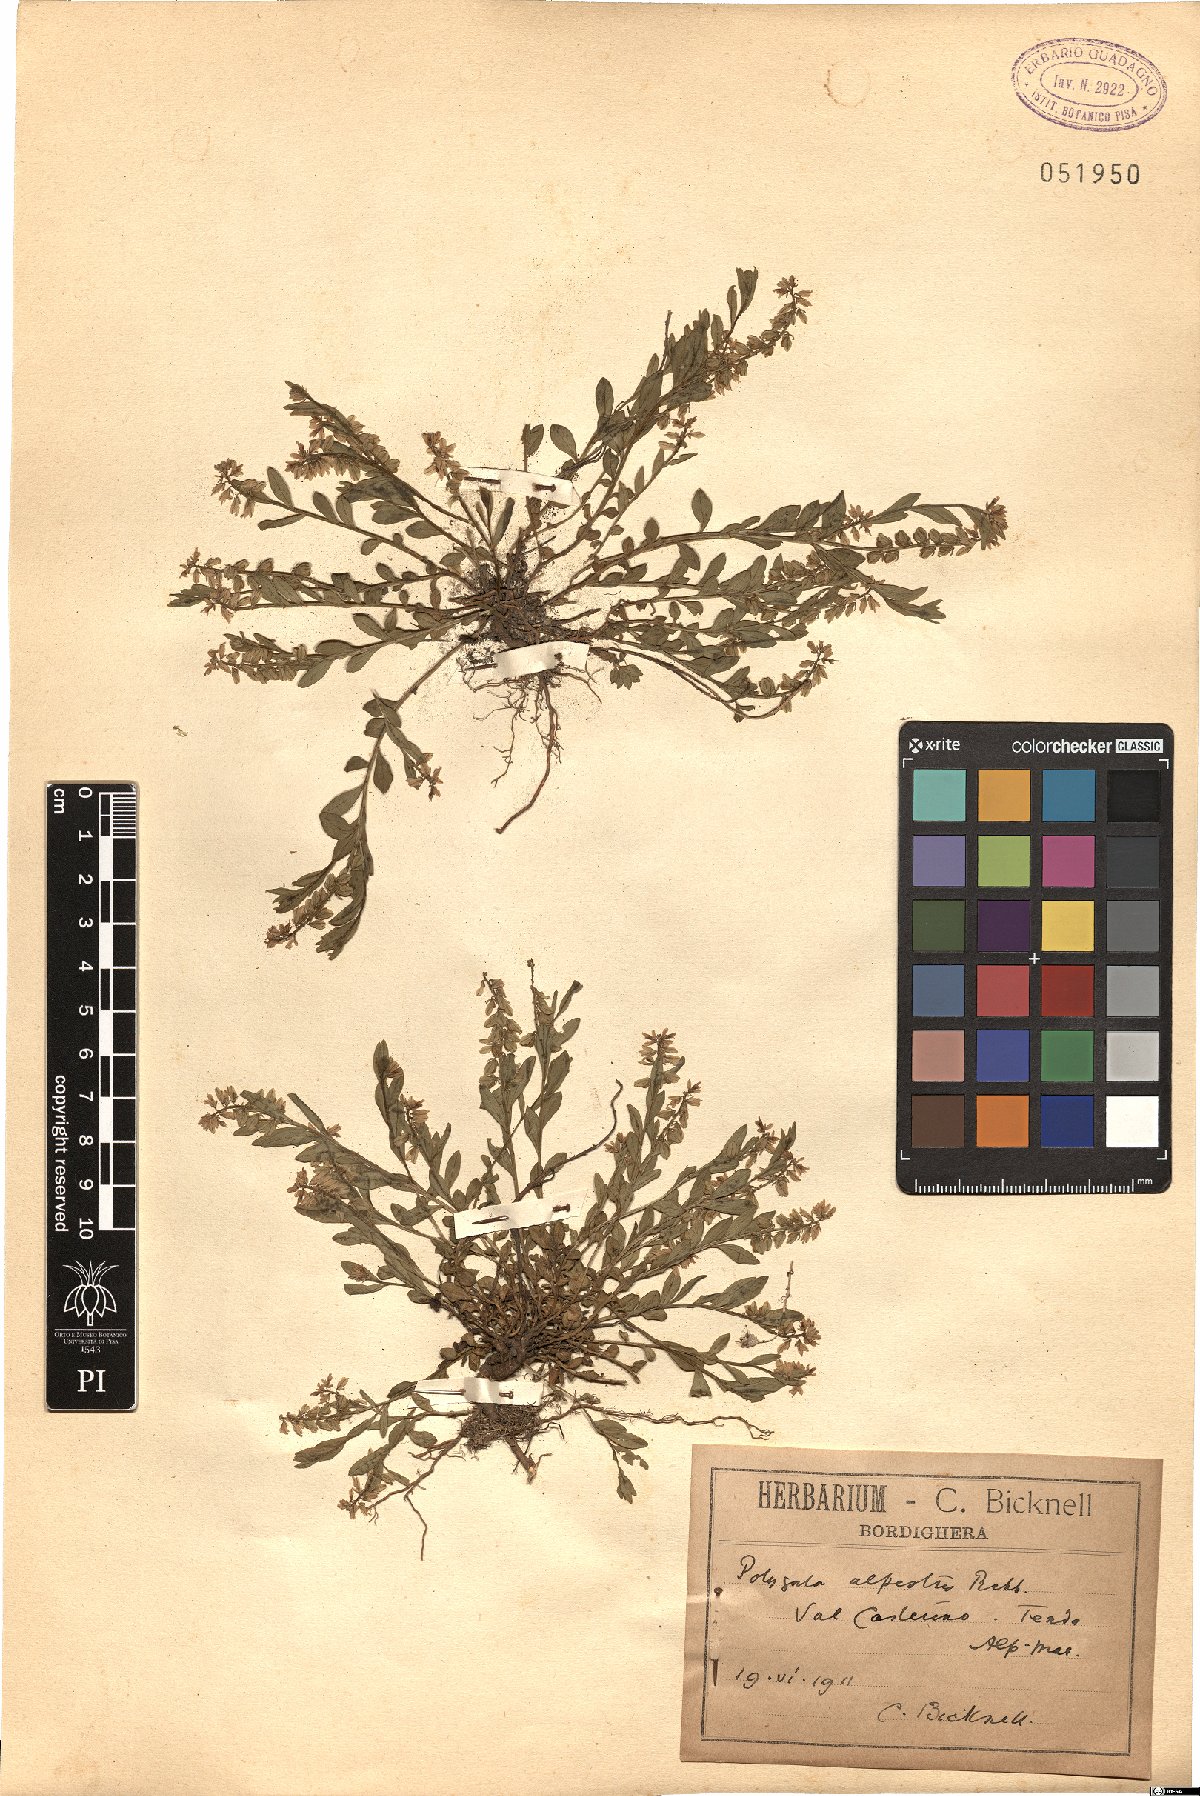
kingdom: Plantae
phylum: Tracheophyta
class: Magnoliopsida
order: Fabales
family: Polygalaceae
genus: Polygala
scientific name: Polygala alpestris
